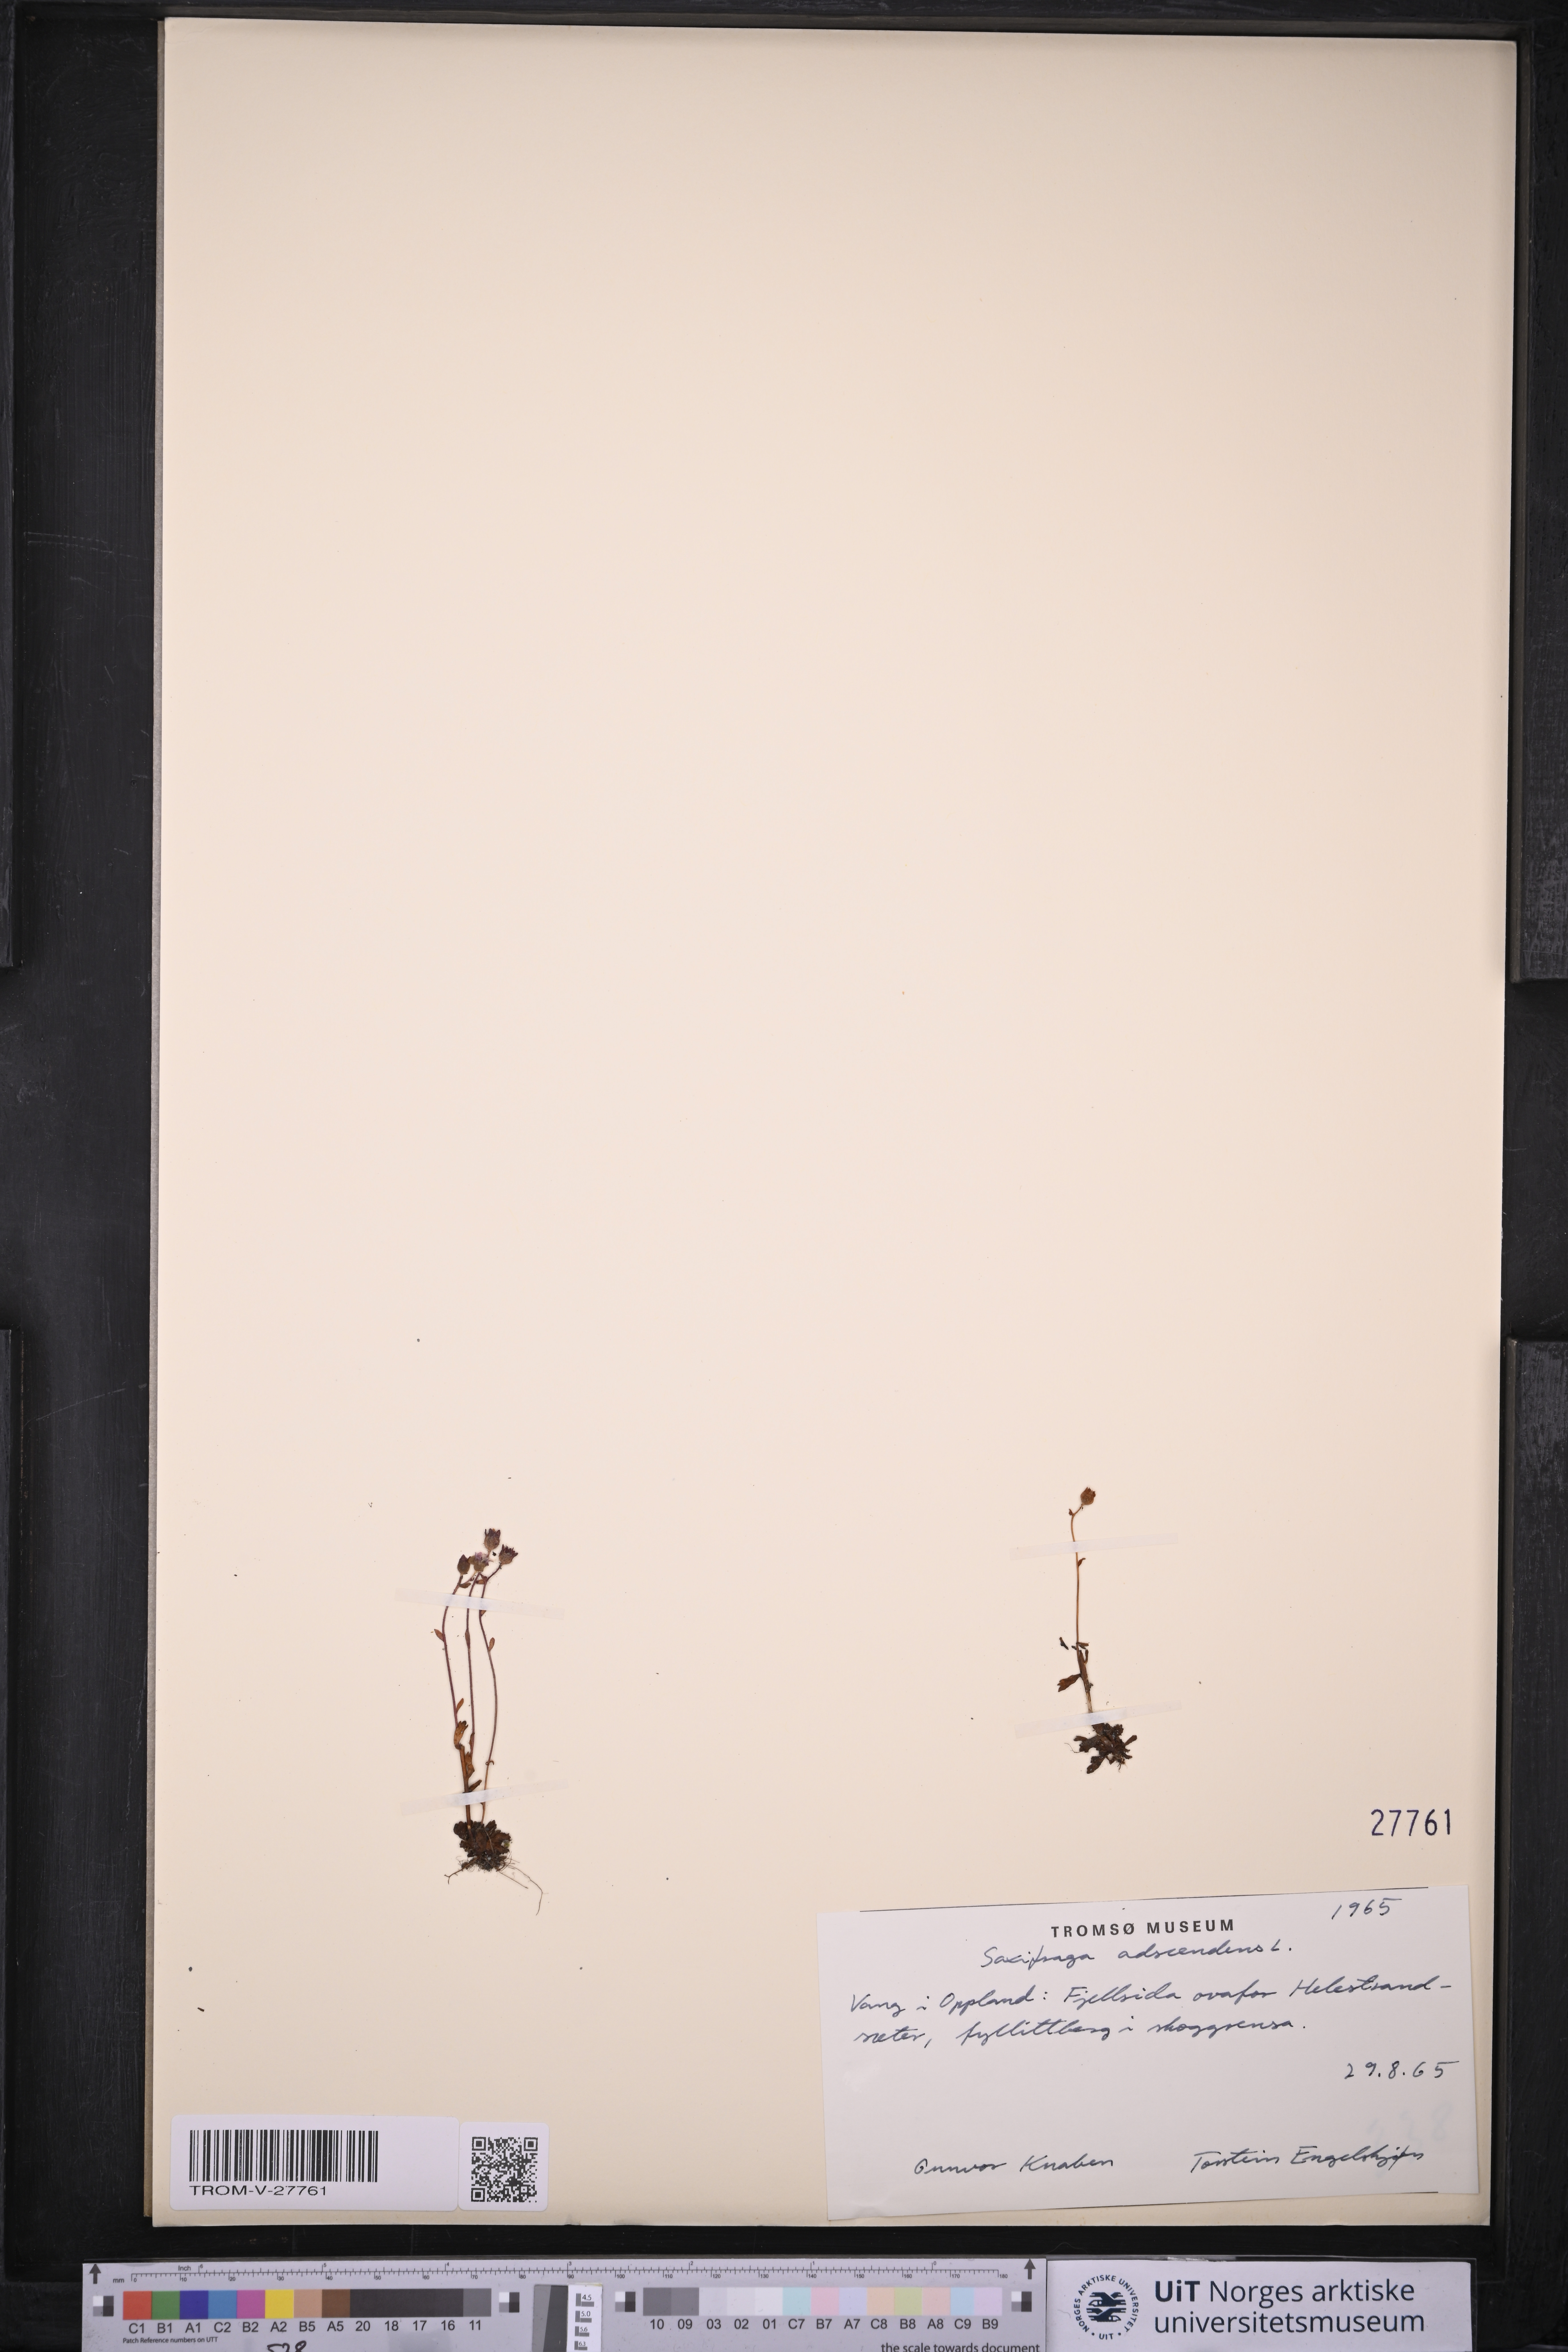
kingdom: Plantae
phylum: Tracheophyta
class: Magnoliopsida
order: Saxifragales
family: Saxifragaceae
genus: Saxifraga
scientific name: Saxifraga adscendens
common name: Ascending saxifrage
